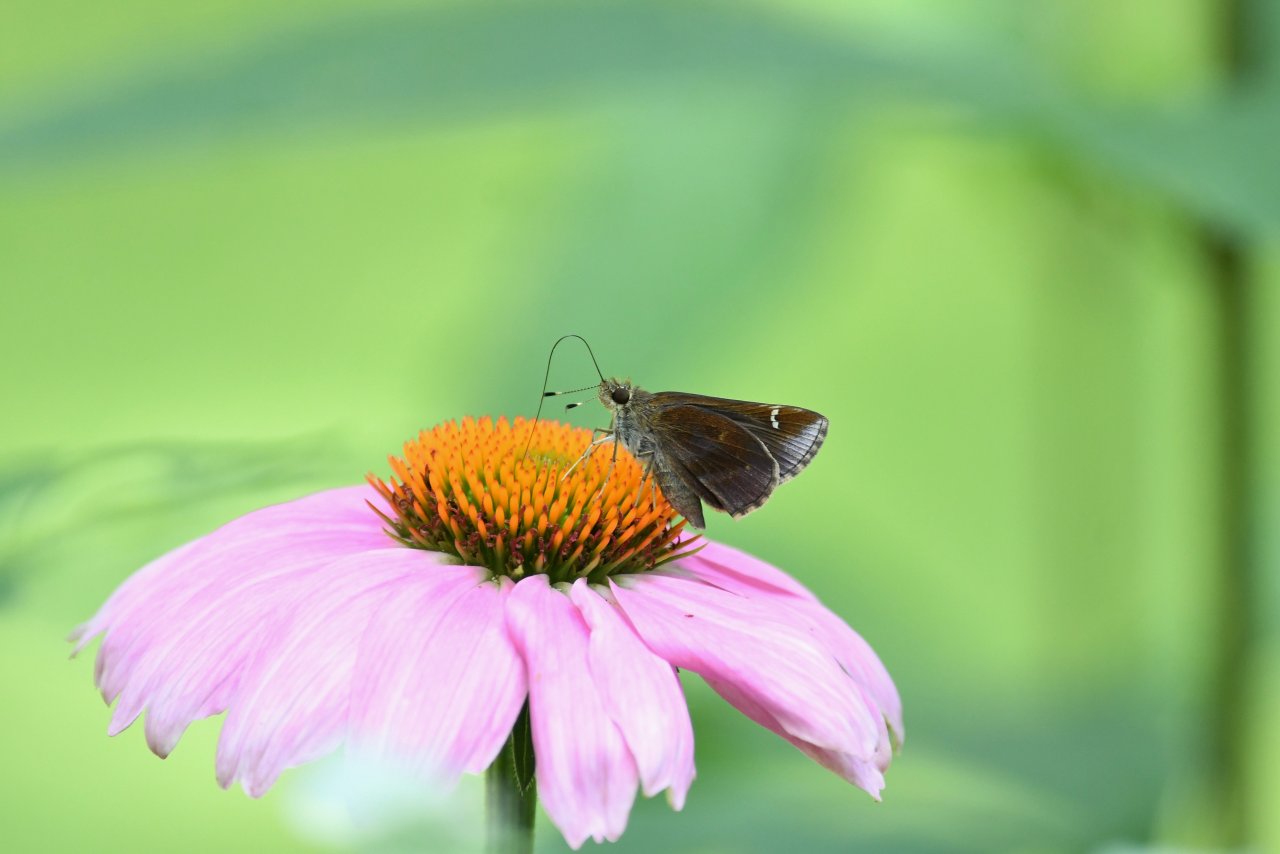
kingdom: Animalia
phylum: Arthropoda
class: Insecta
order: Lepidoptera
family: Hesperiidae
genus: Lerema
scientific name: Lerema accius
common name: Clouded Skipper
